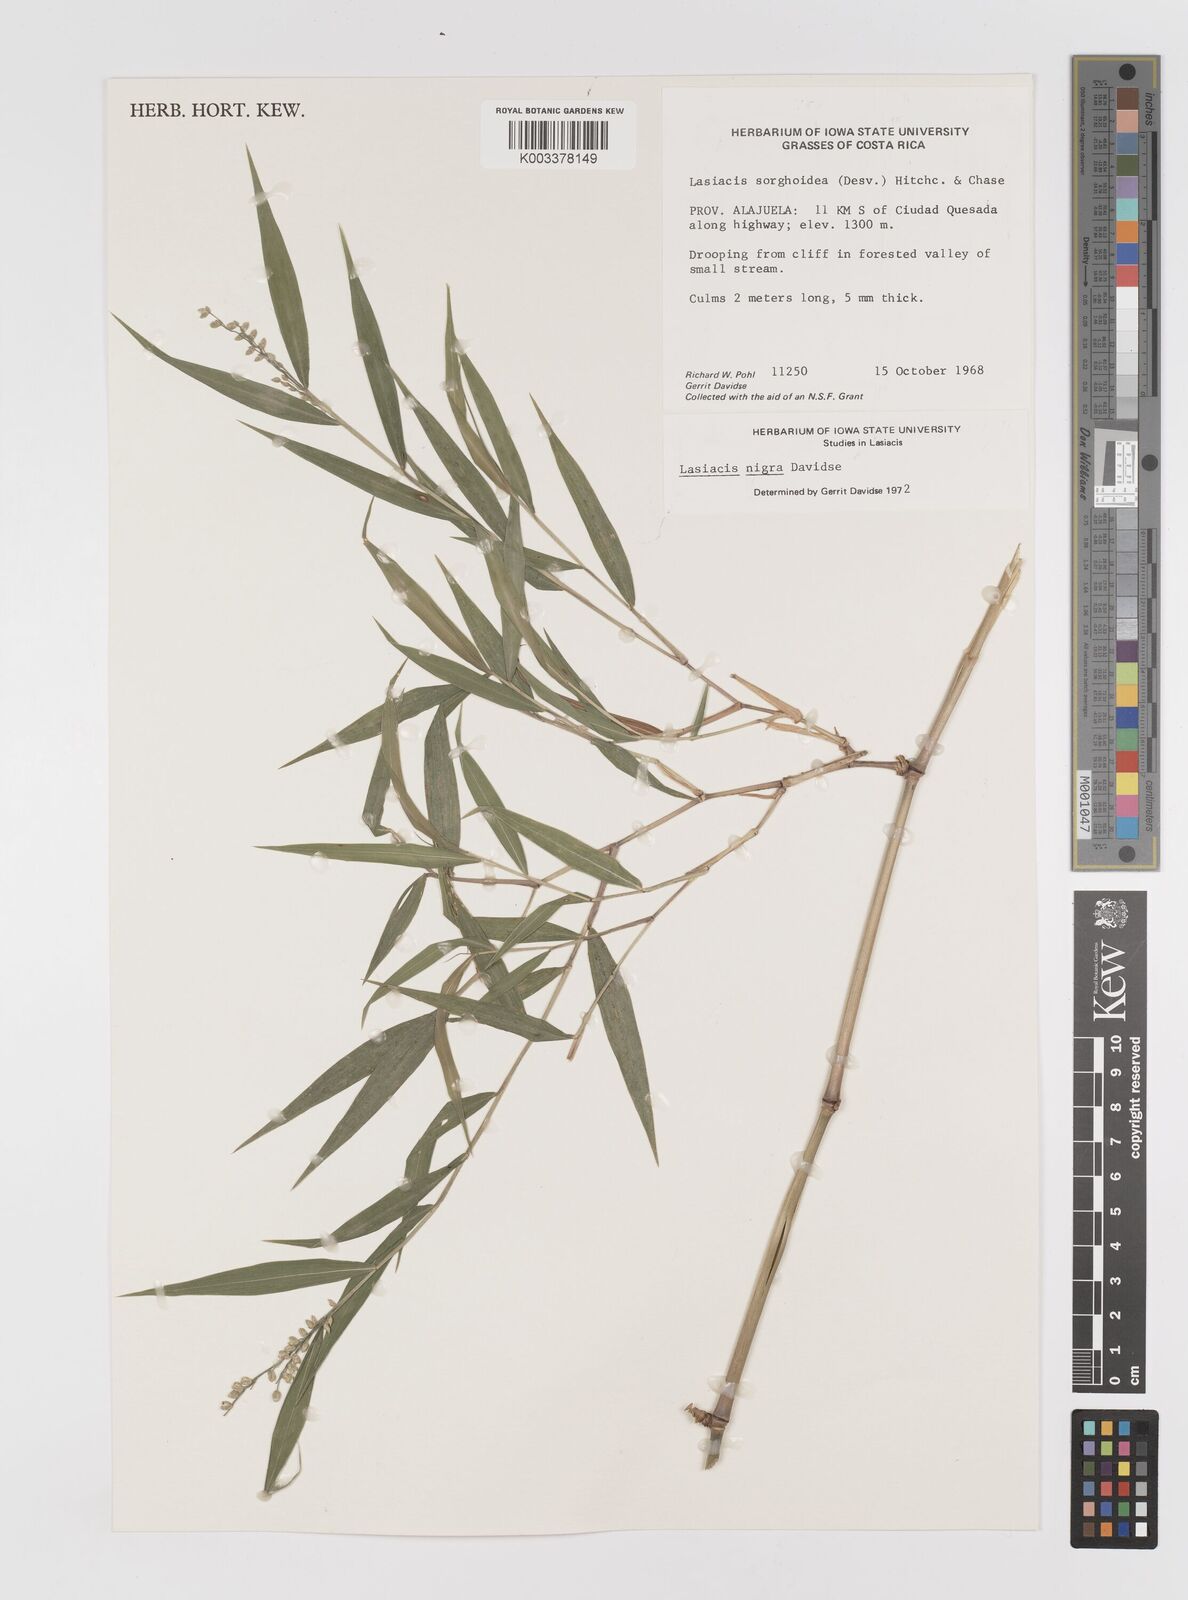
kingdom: Plantae
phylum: Tracheophyta
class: Liliopsida
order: Poales
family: Poaceae
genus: Lasiacis
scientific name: Lasiacis nigra
